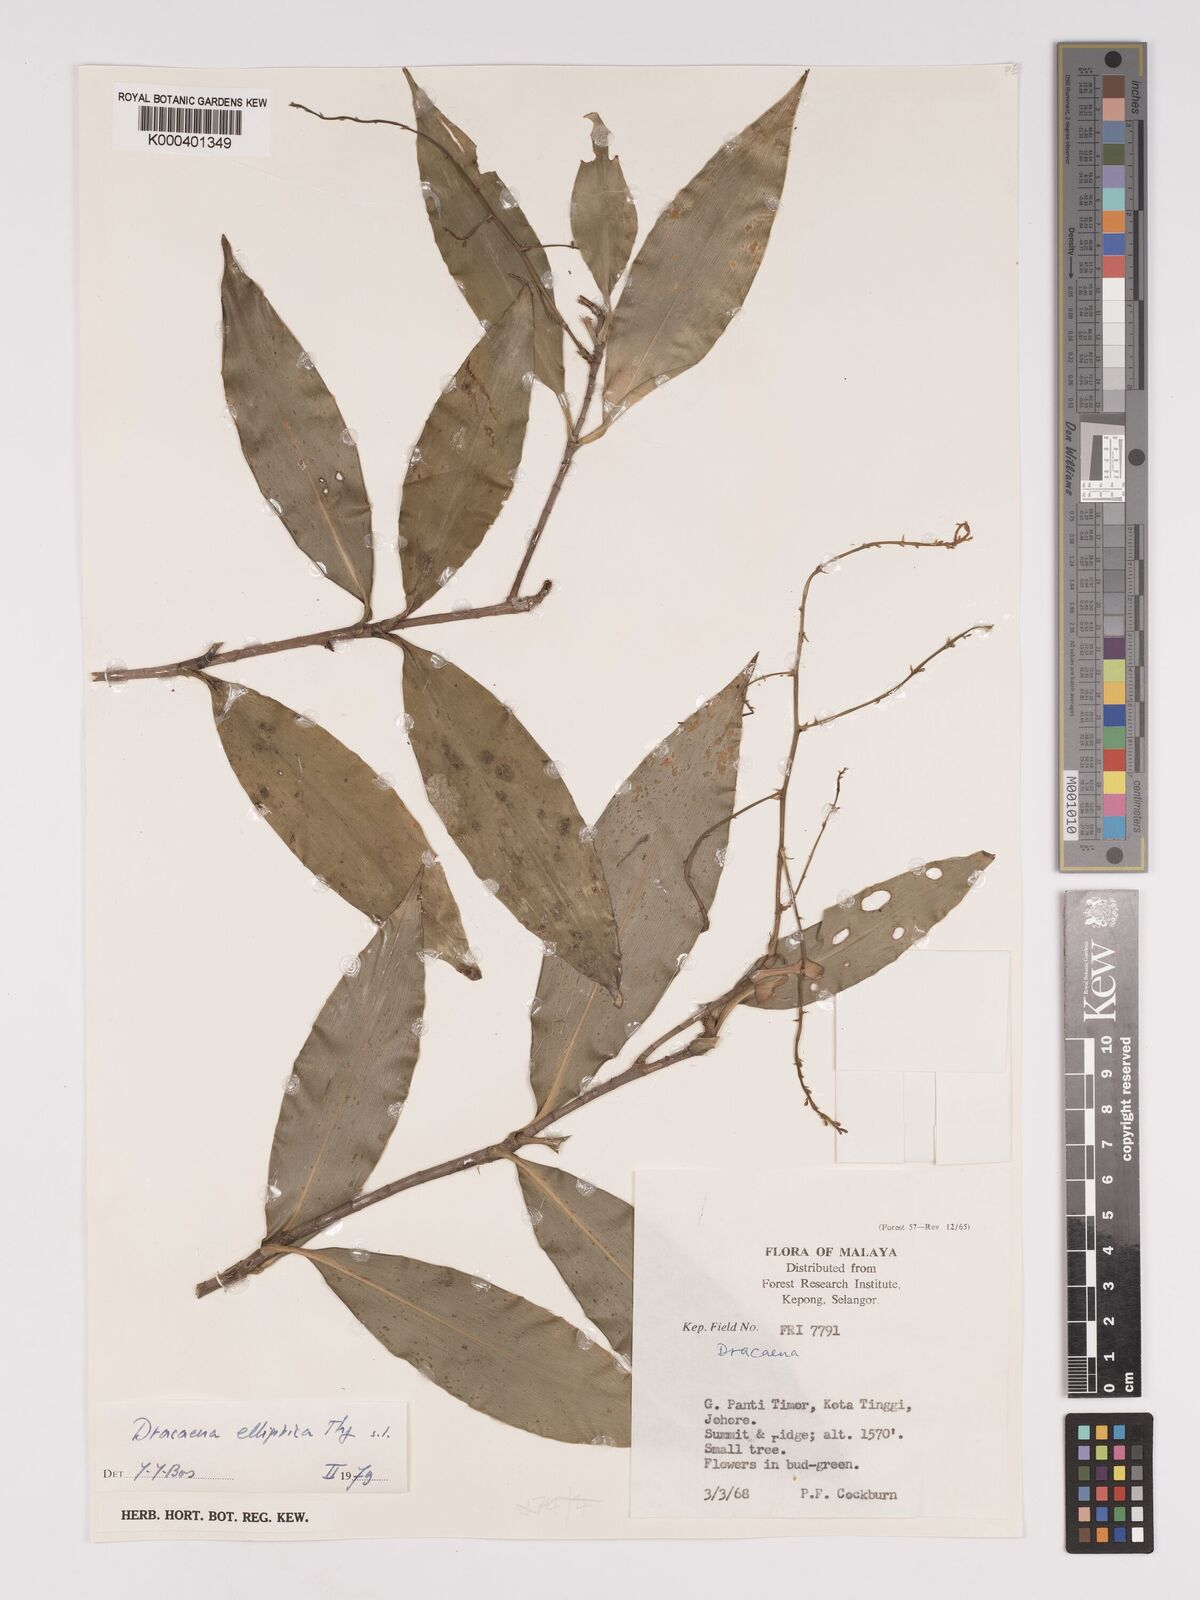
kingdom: Plantae
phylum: Tracheophyta
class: Liliopsida
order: Asparagales
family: Asparagaceae
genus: Dracaena
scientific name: Dracaena elliptica
